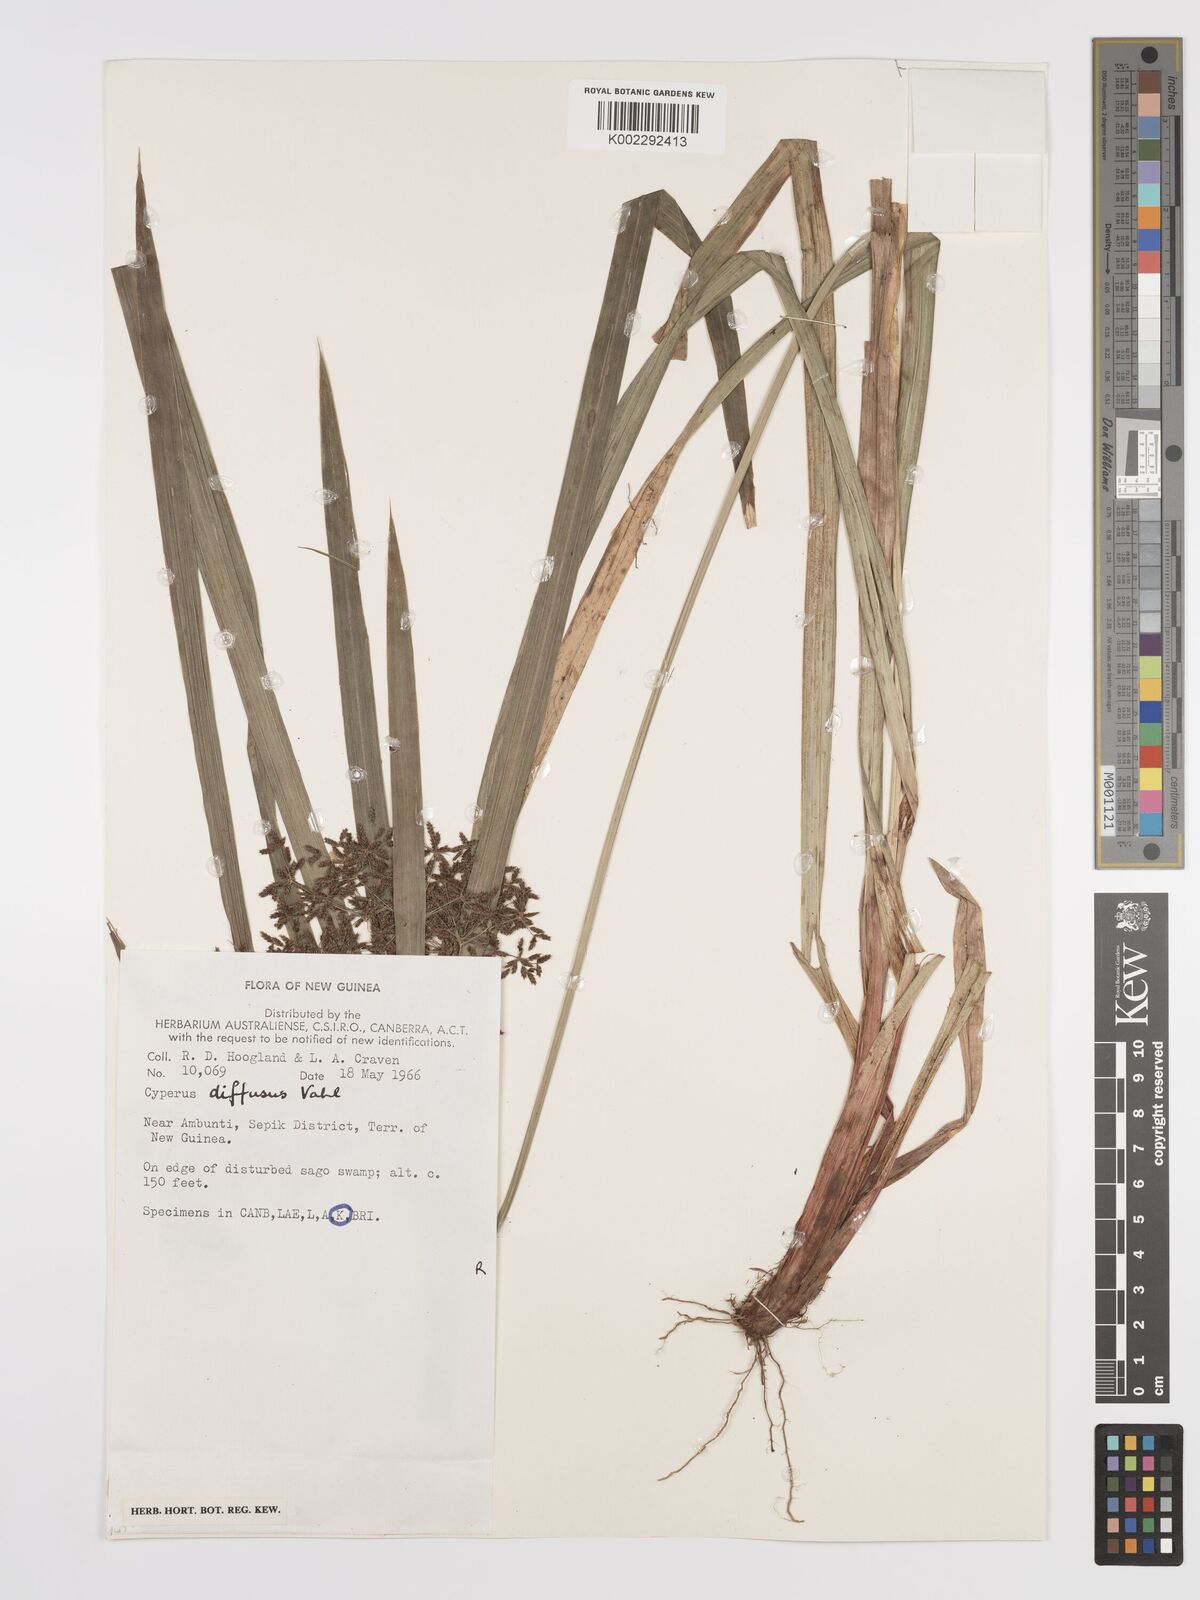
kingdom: Plantae
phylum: Tracheophyta
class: Liliopsida
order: Poales
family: Cyperaceae
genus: Cyperus
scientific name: Cyperus diffusus
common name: Dwarf umbrella grass
